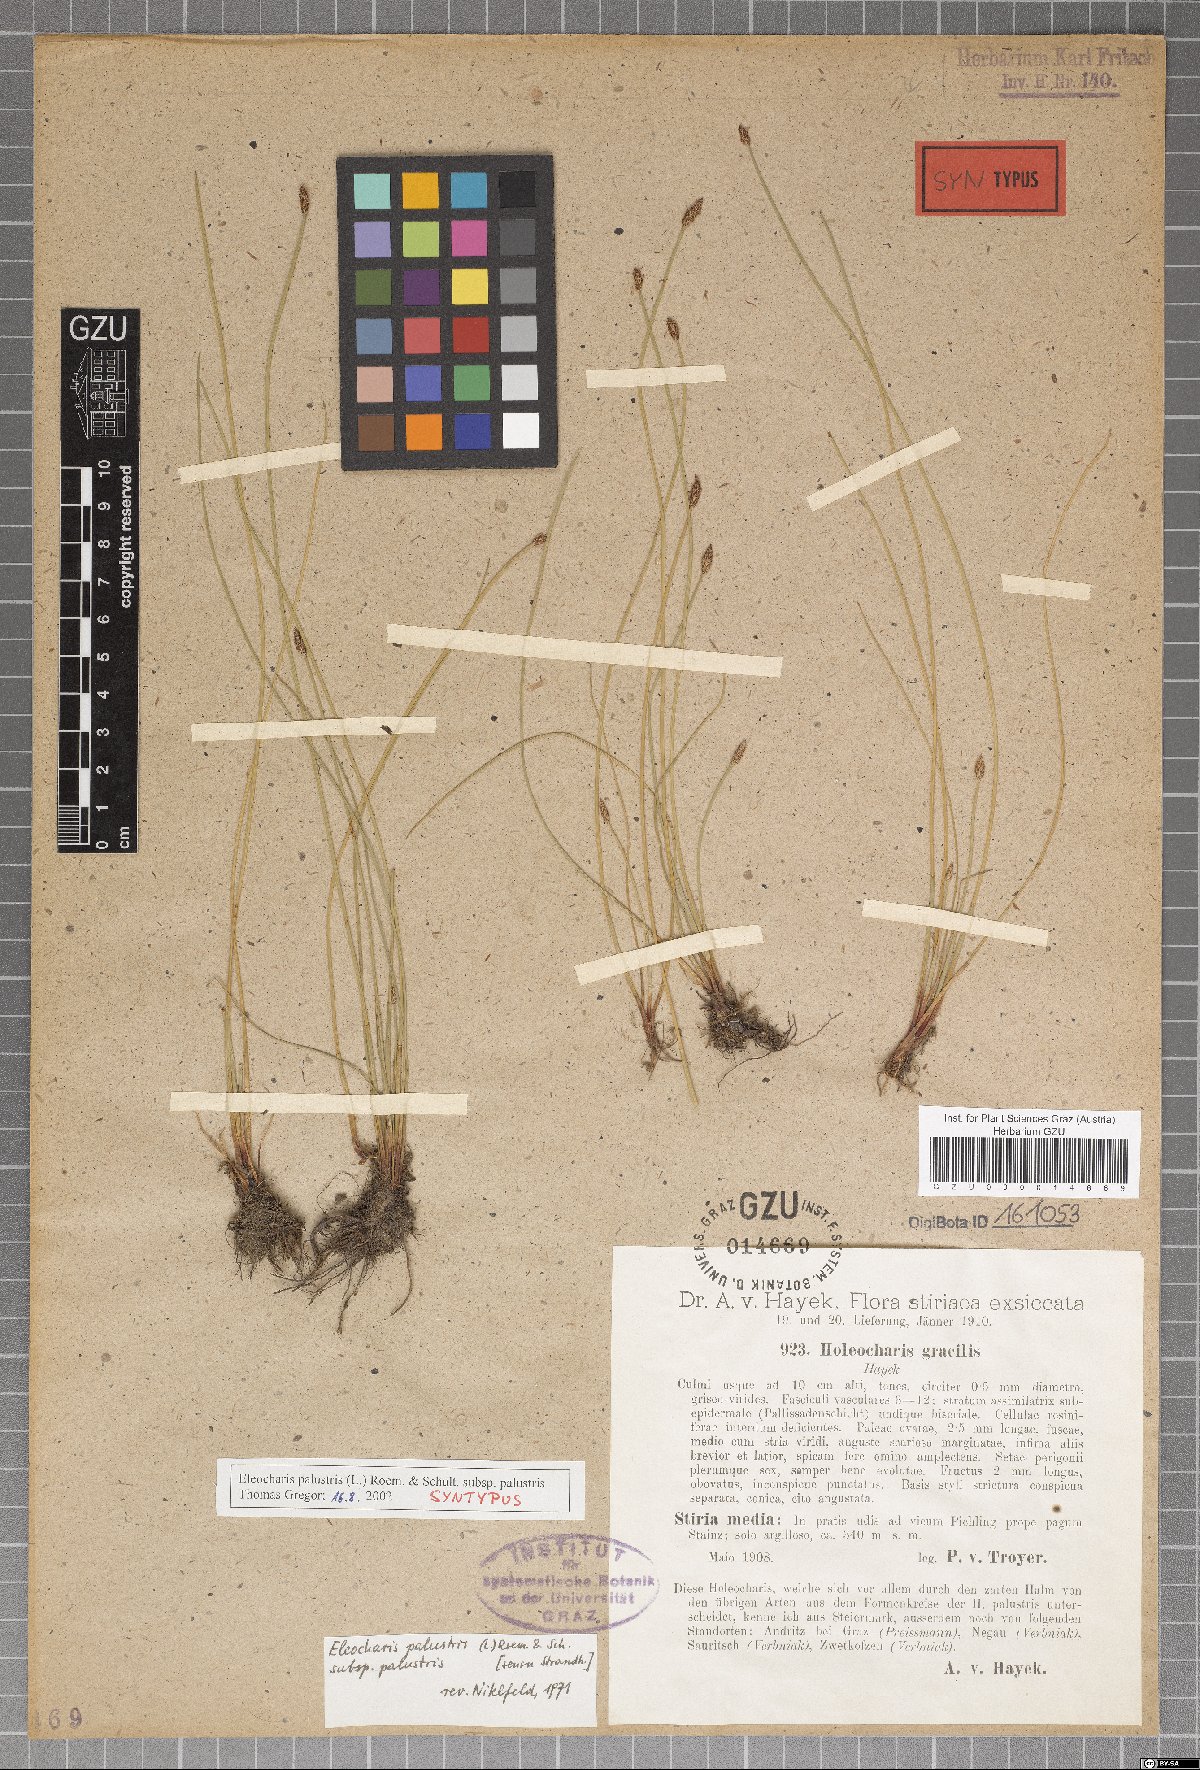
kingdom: Plantae
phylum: Tracheophyta
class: Liliopsida
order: Poales
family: Cyperaceae
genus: Eleocharis
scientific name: Eleocharis palustris
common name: Common spike-rush
